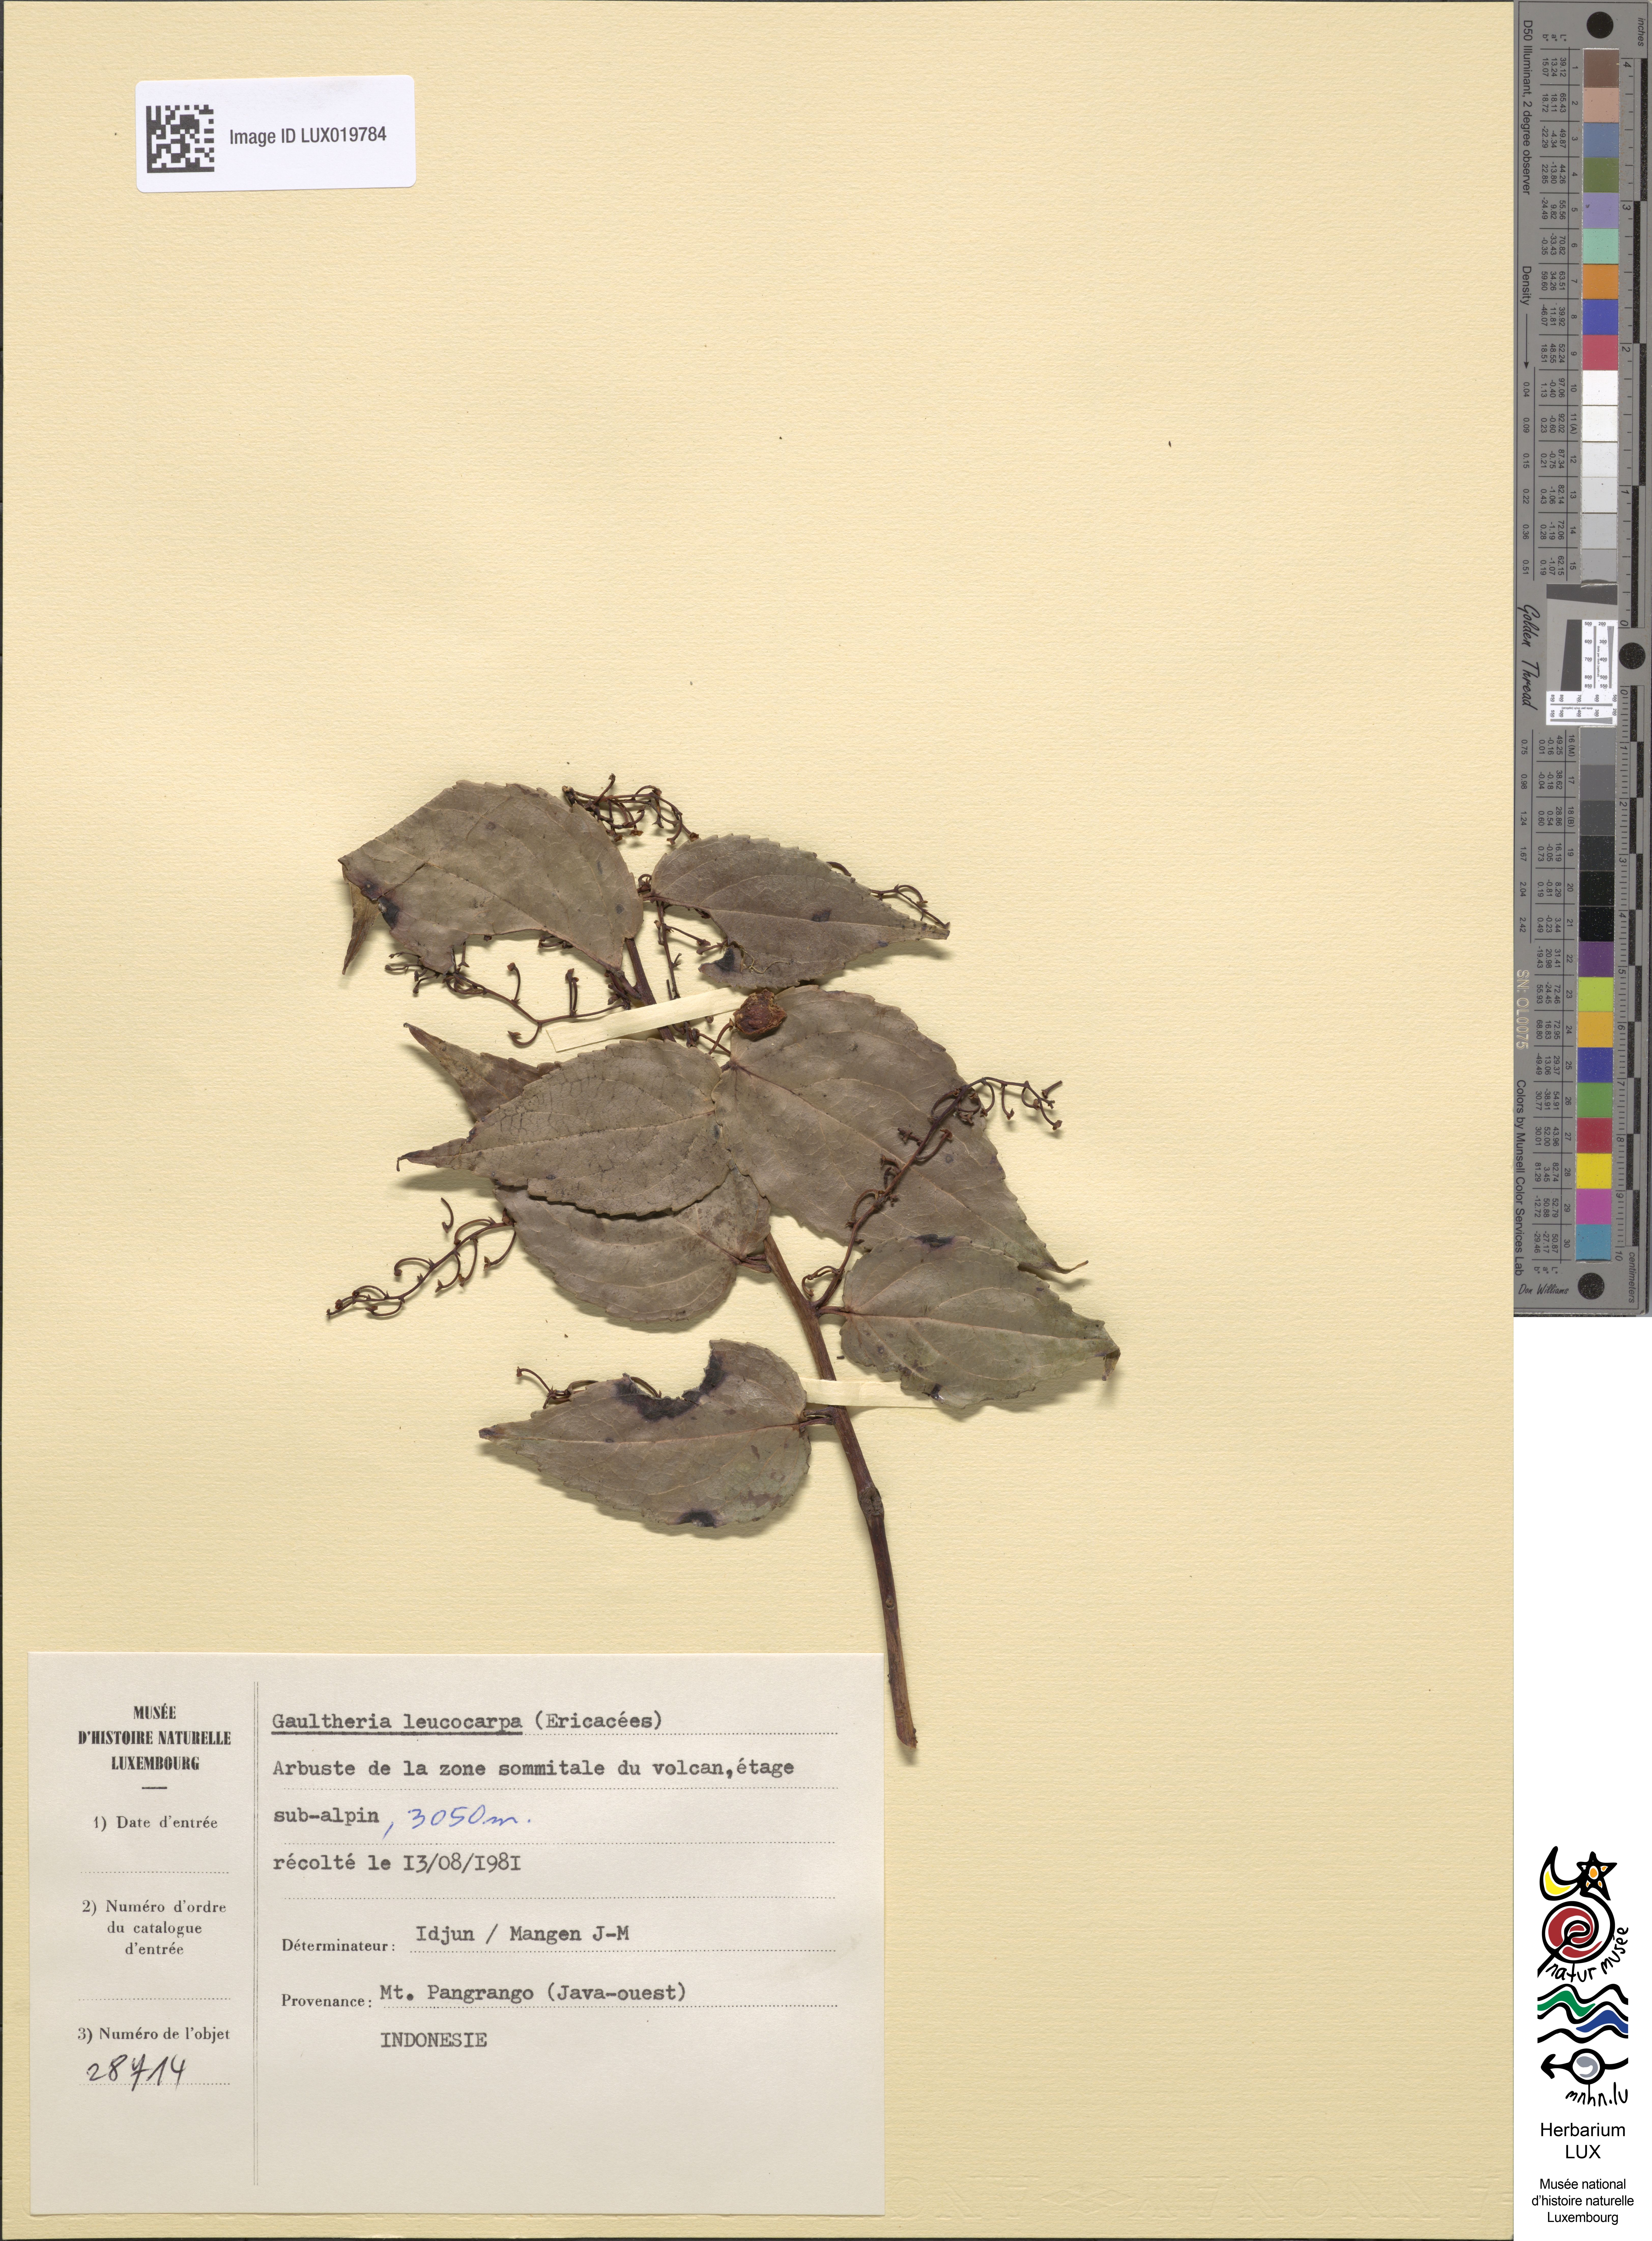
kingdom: Plantae
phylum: Tracheophyta
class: Magnoliopsida
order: Ericales
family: Ericaceae
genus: Gaultheria
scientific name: Gaultheria leucocarpa
